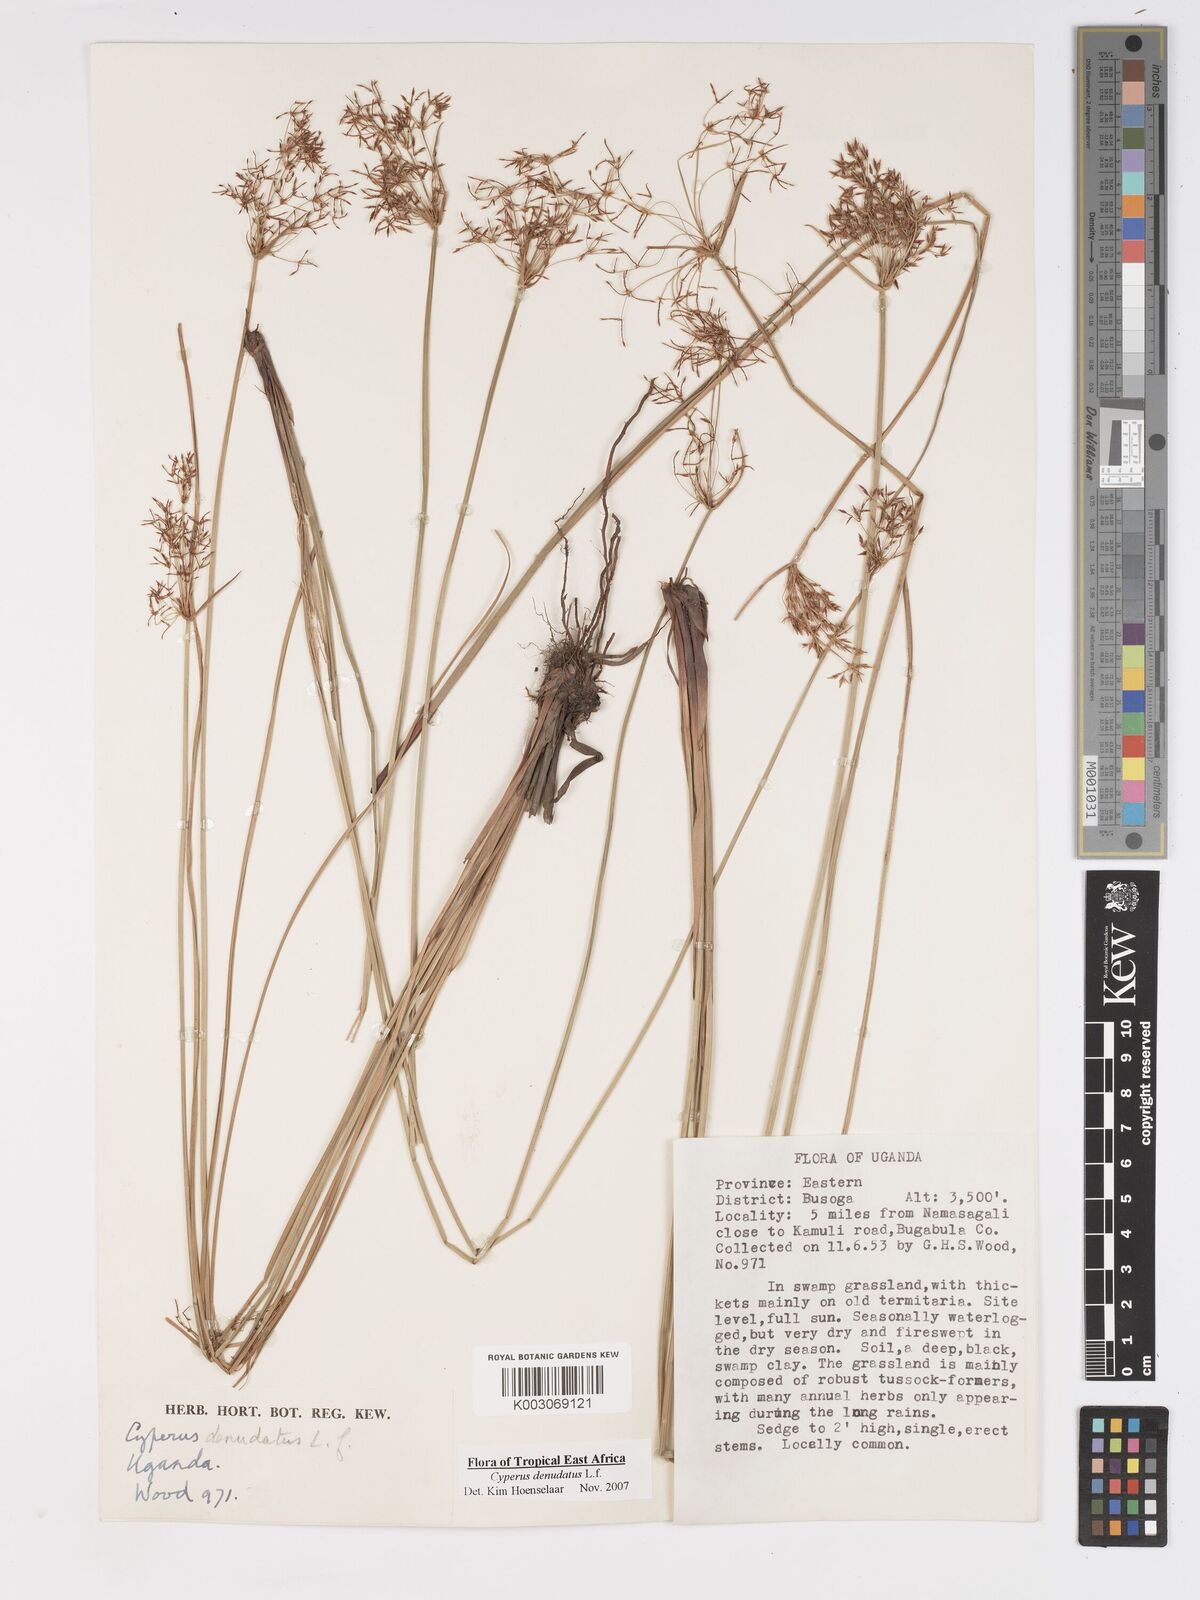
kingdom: Plantae
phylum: Tracheophyta
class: Liliopsida
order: Poales
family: Cyperaceae
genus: Cyperus
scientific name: Cyperus platycaulis
